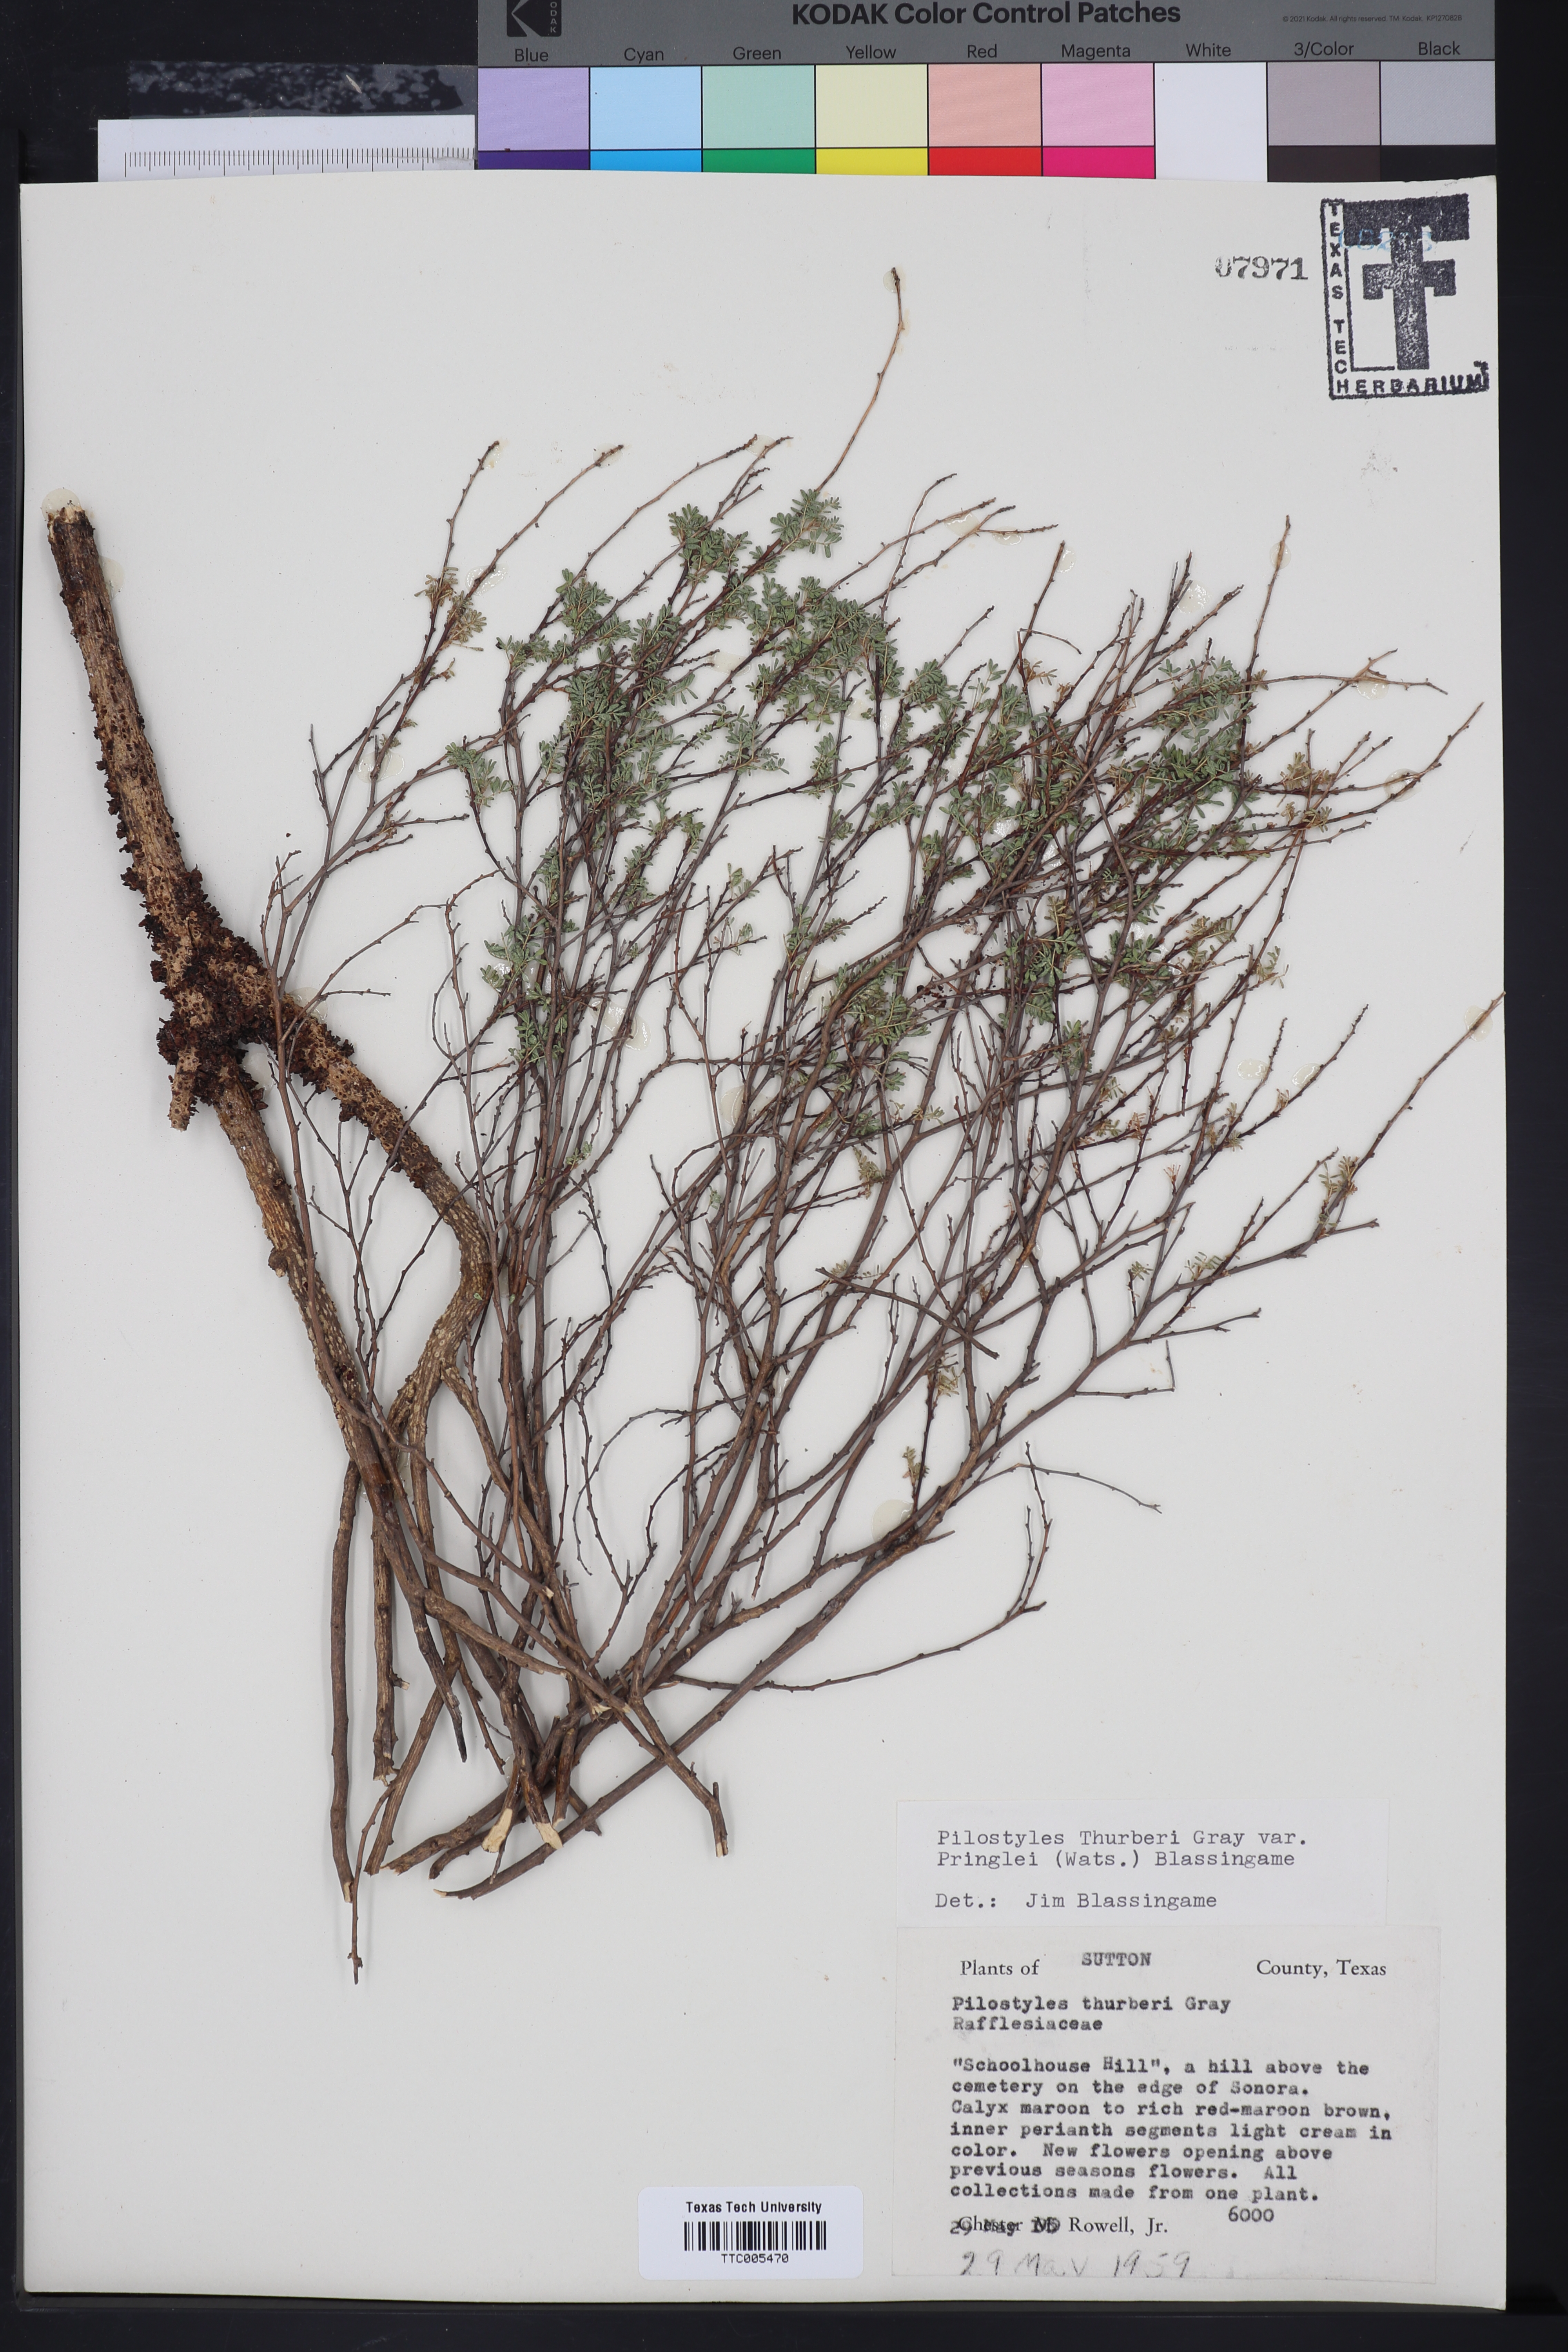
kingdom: Plantae
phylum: Tracheophyta
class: Magnoliopsida
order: Cucurbitales
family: Apodanthaceae
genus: Pilostyles
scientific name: Pilostyles thurberi
